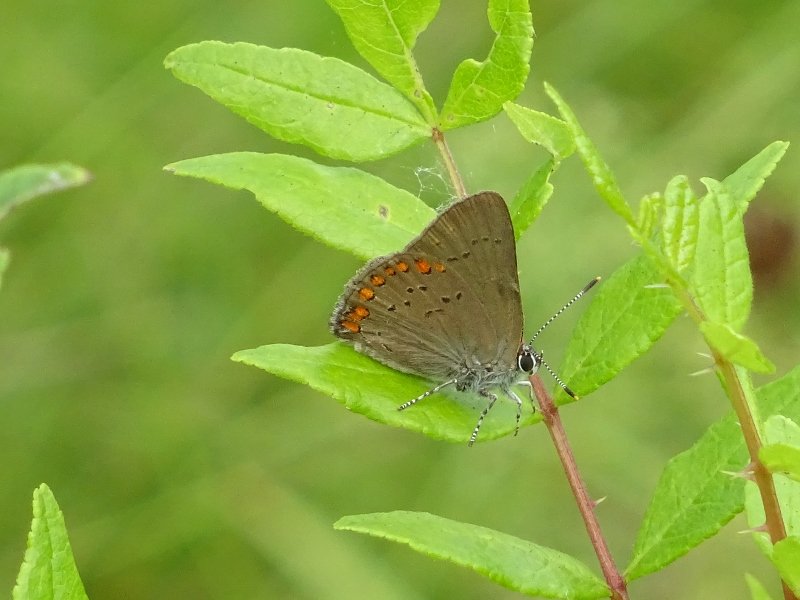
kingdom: Animalia
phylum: Arthropoda
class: Insecta
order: Lepidoptera
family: Lycaenidae
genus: Harkenclenus
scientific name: Harkenclenus titus
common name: Coral Hairstreak
